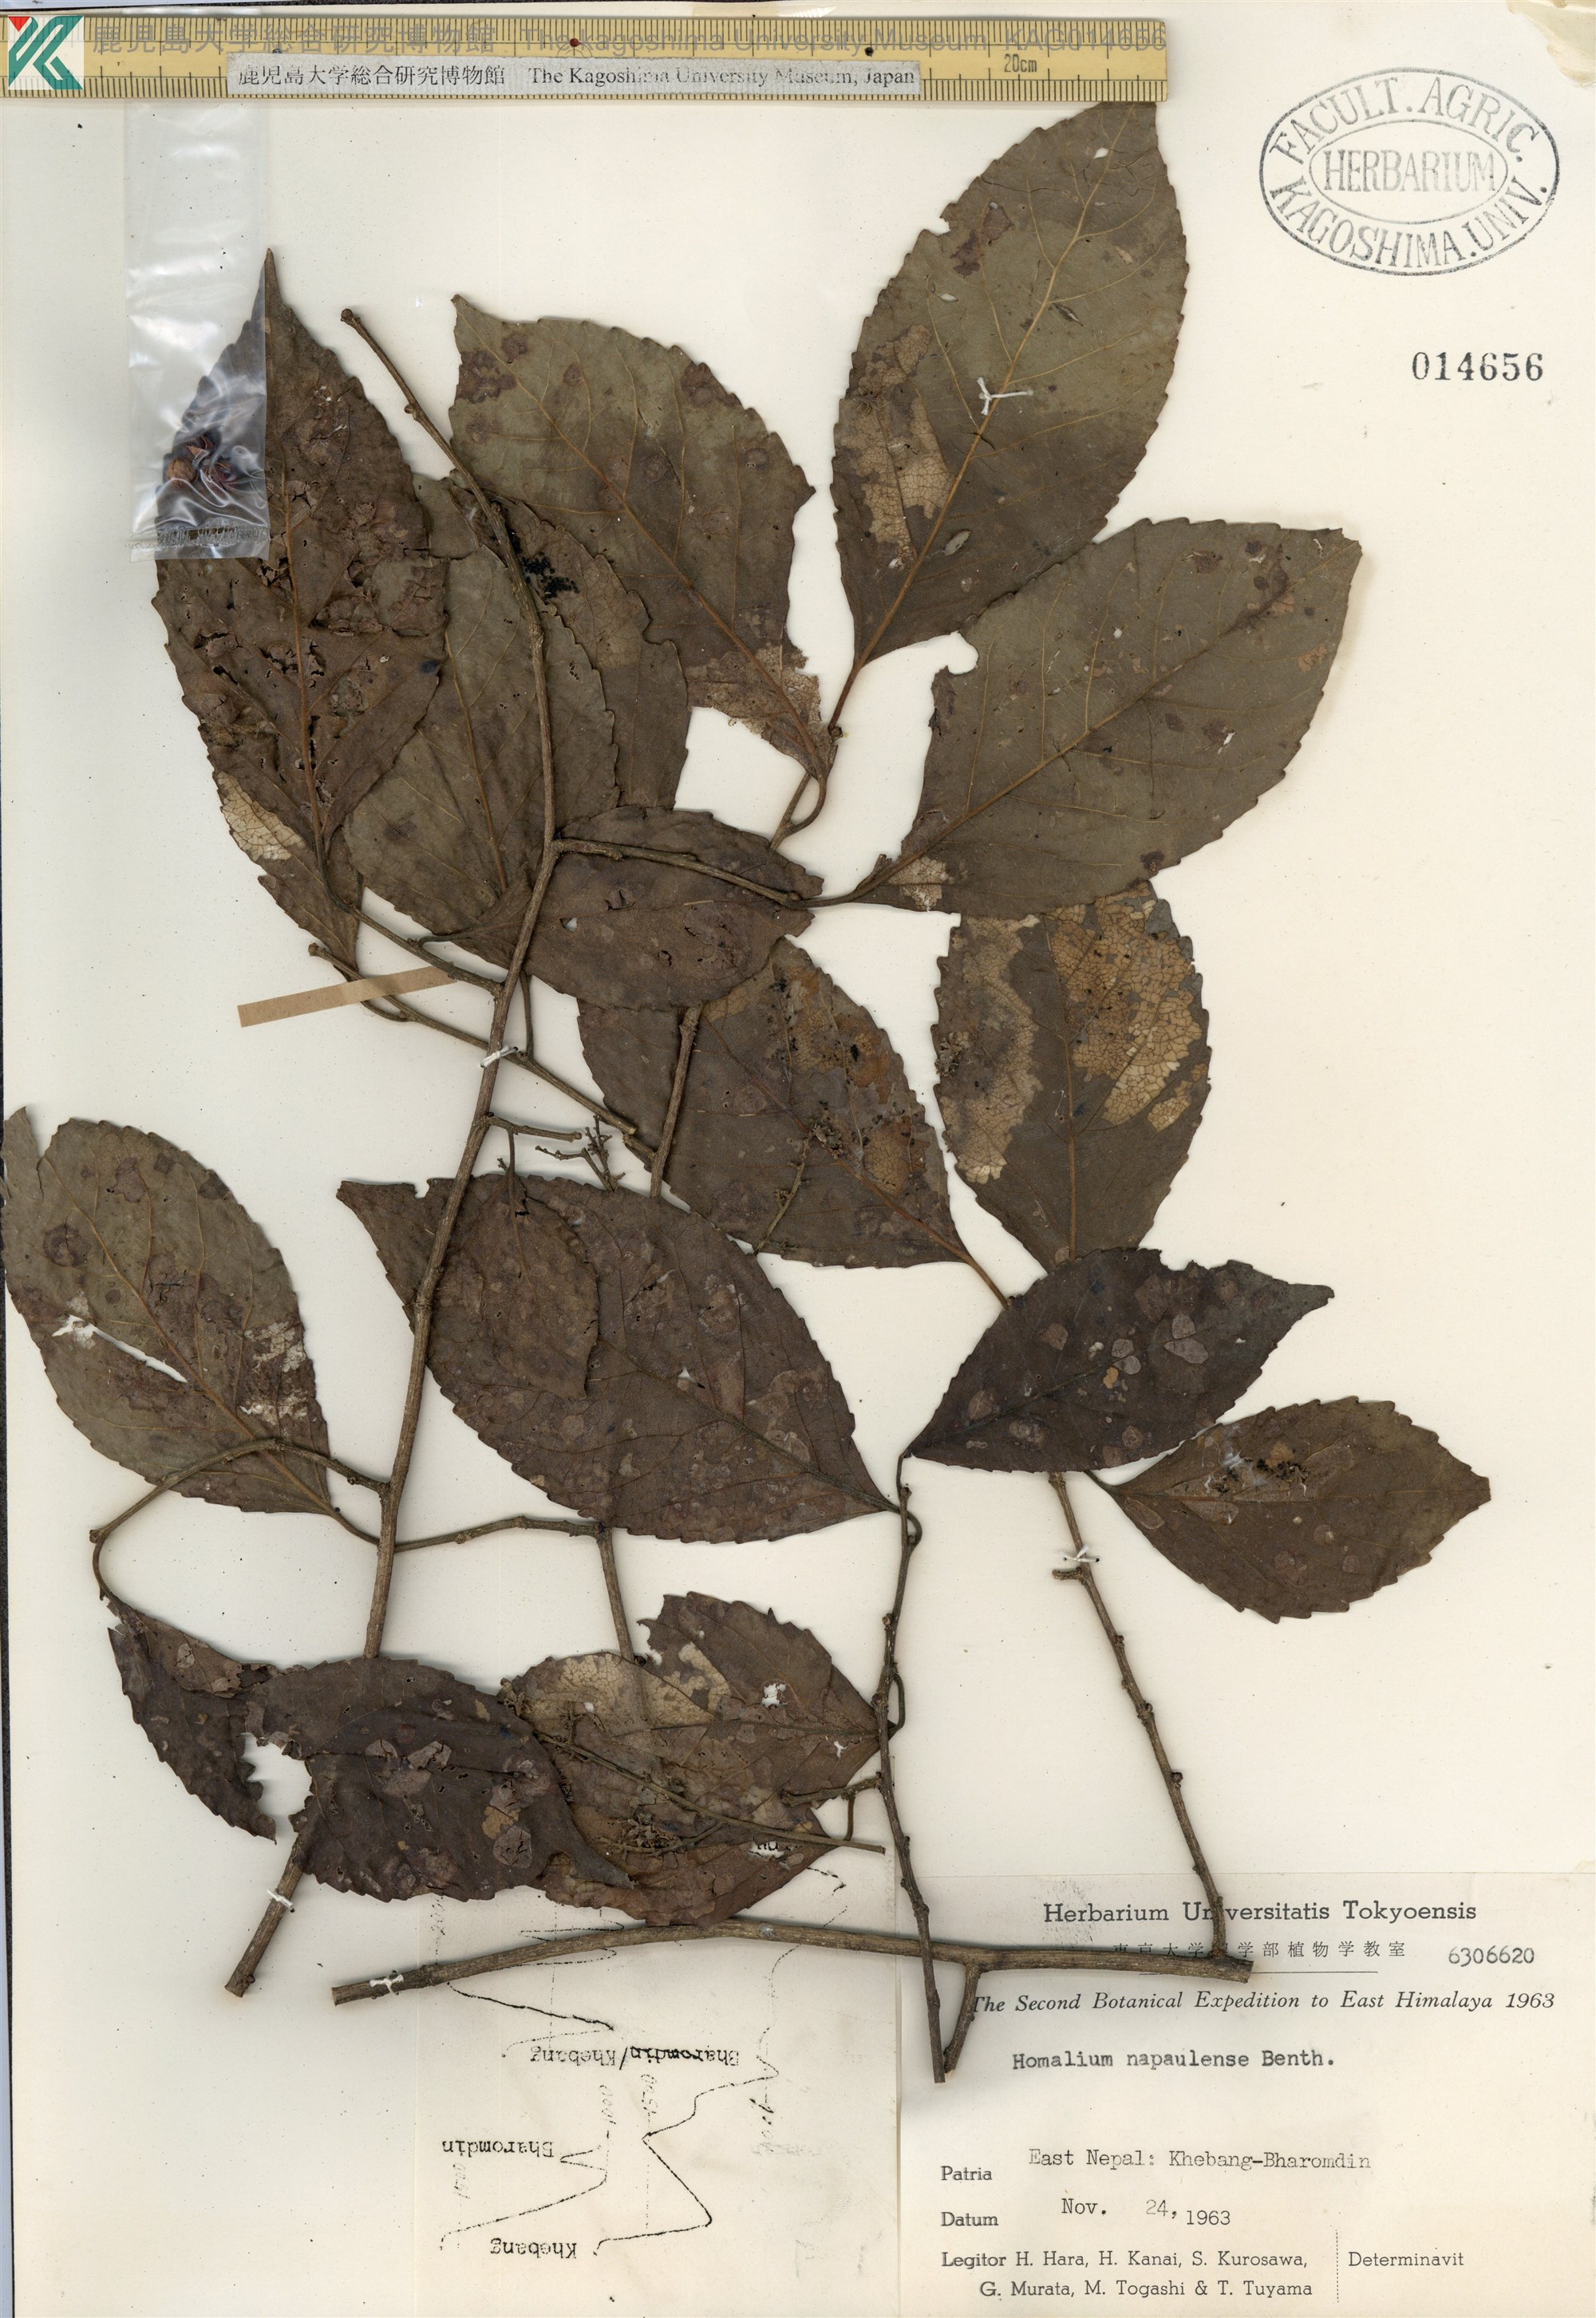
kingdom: Plantae
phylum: Tracheophyta
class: Magnoliopsida
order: Malpighiales
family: Salicaceae
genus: Homalium
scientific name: Homalium napaulense
